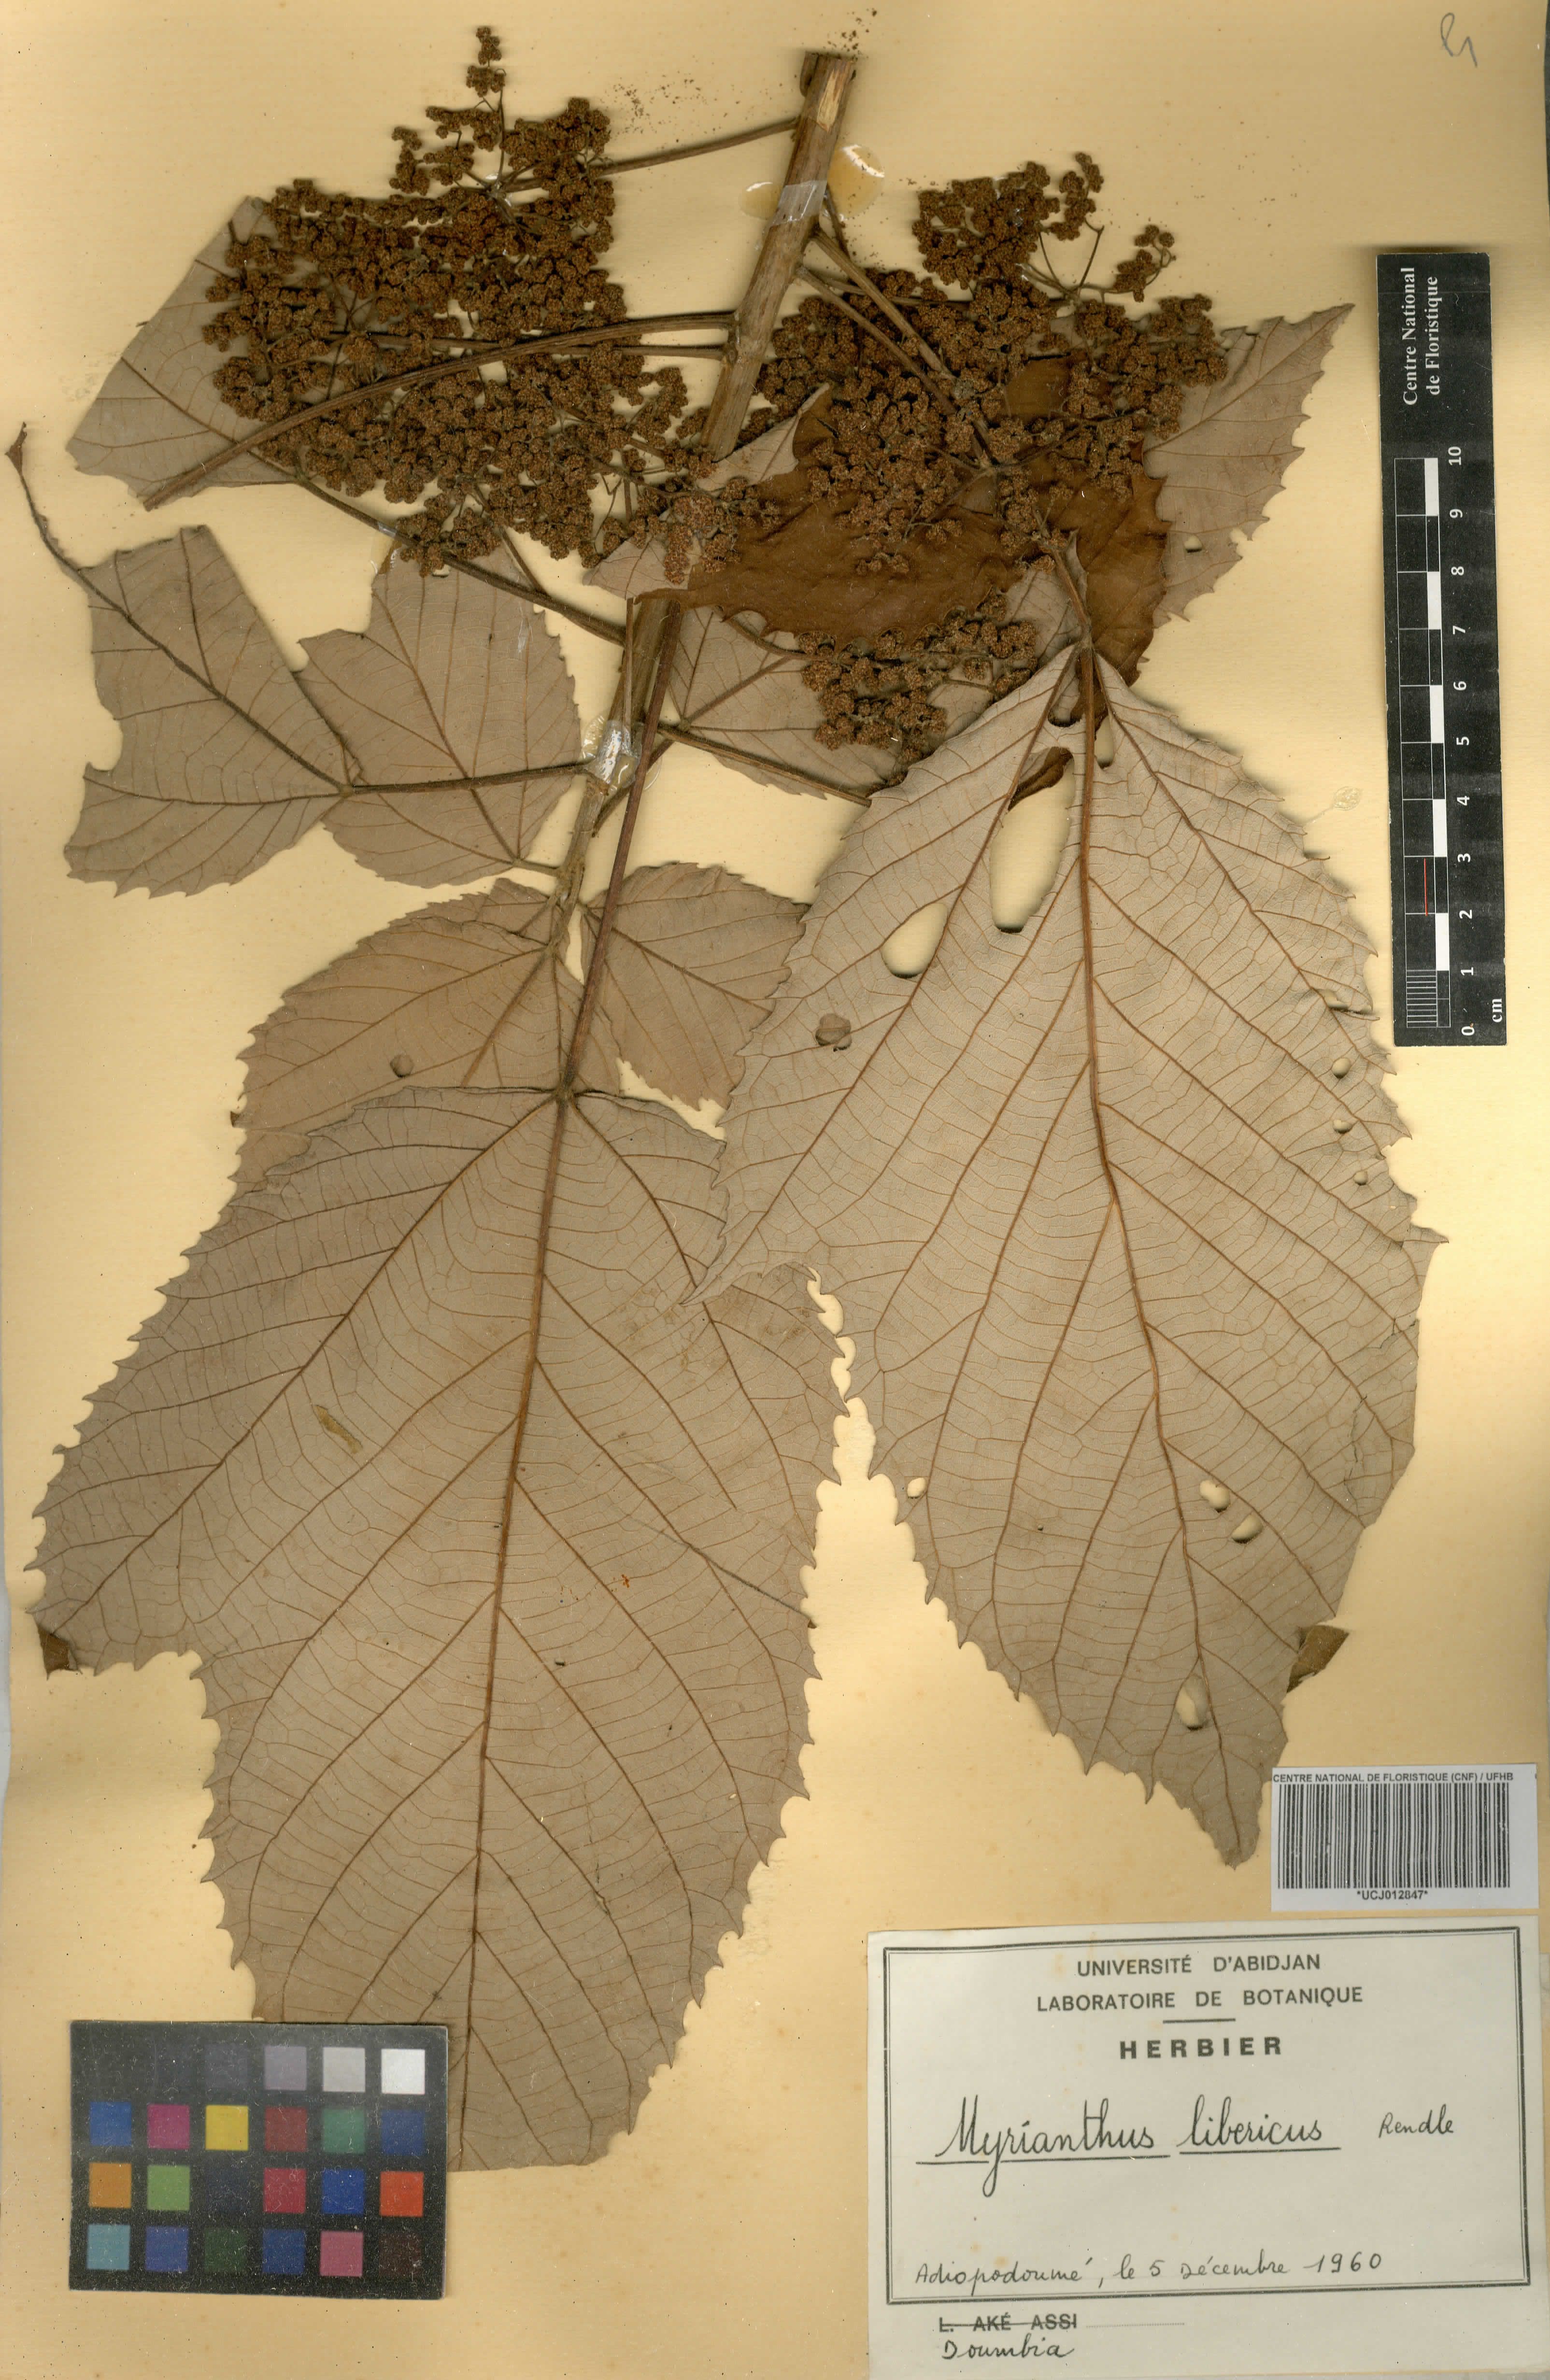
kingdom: Plantae
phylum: Tracheophyta
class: Magnoliopsida
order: Rosales
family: Urticaceae
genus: Myrianthus
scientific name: Myrianthus libericus
